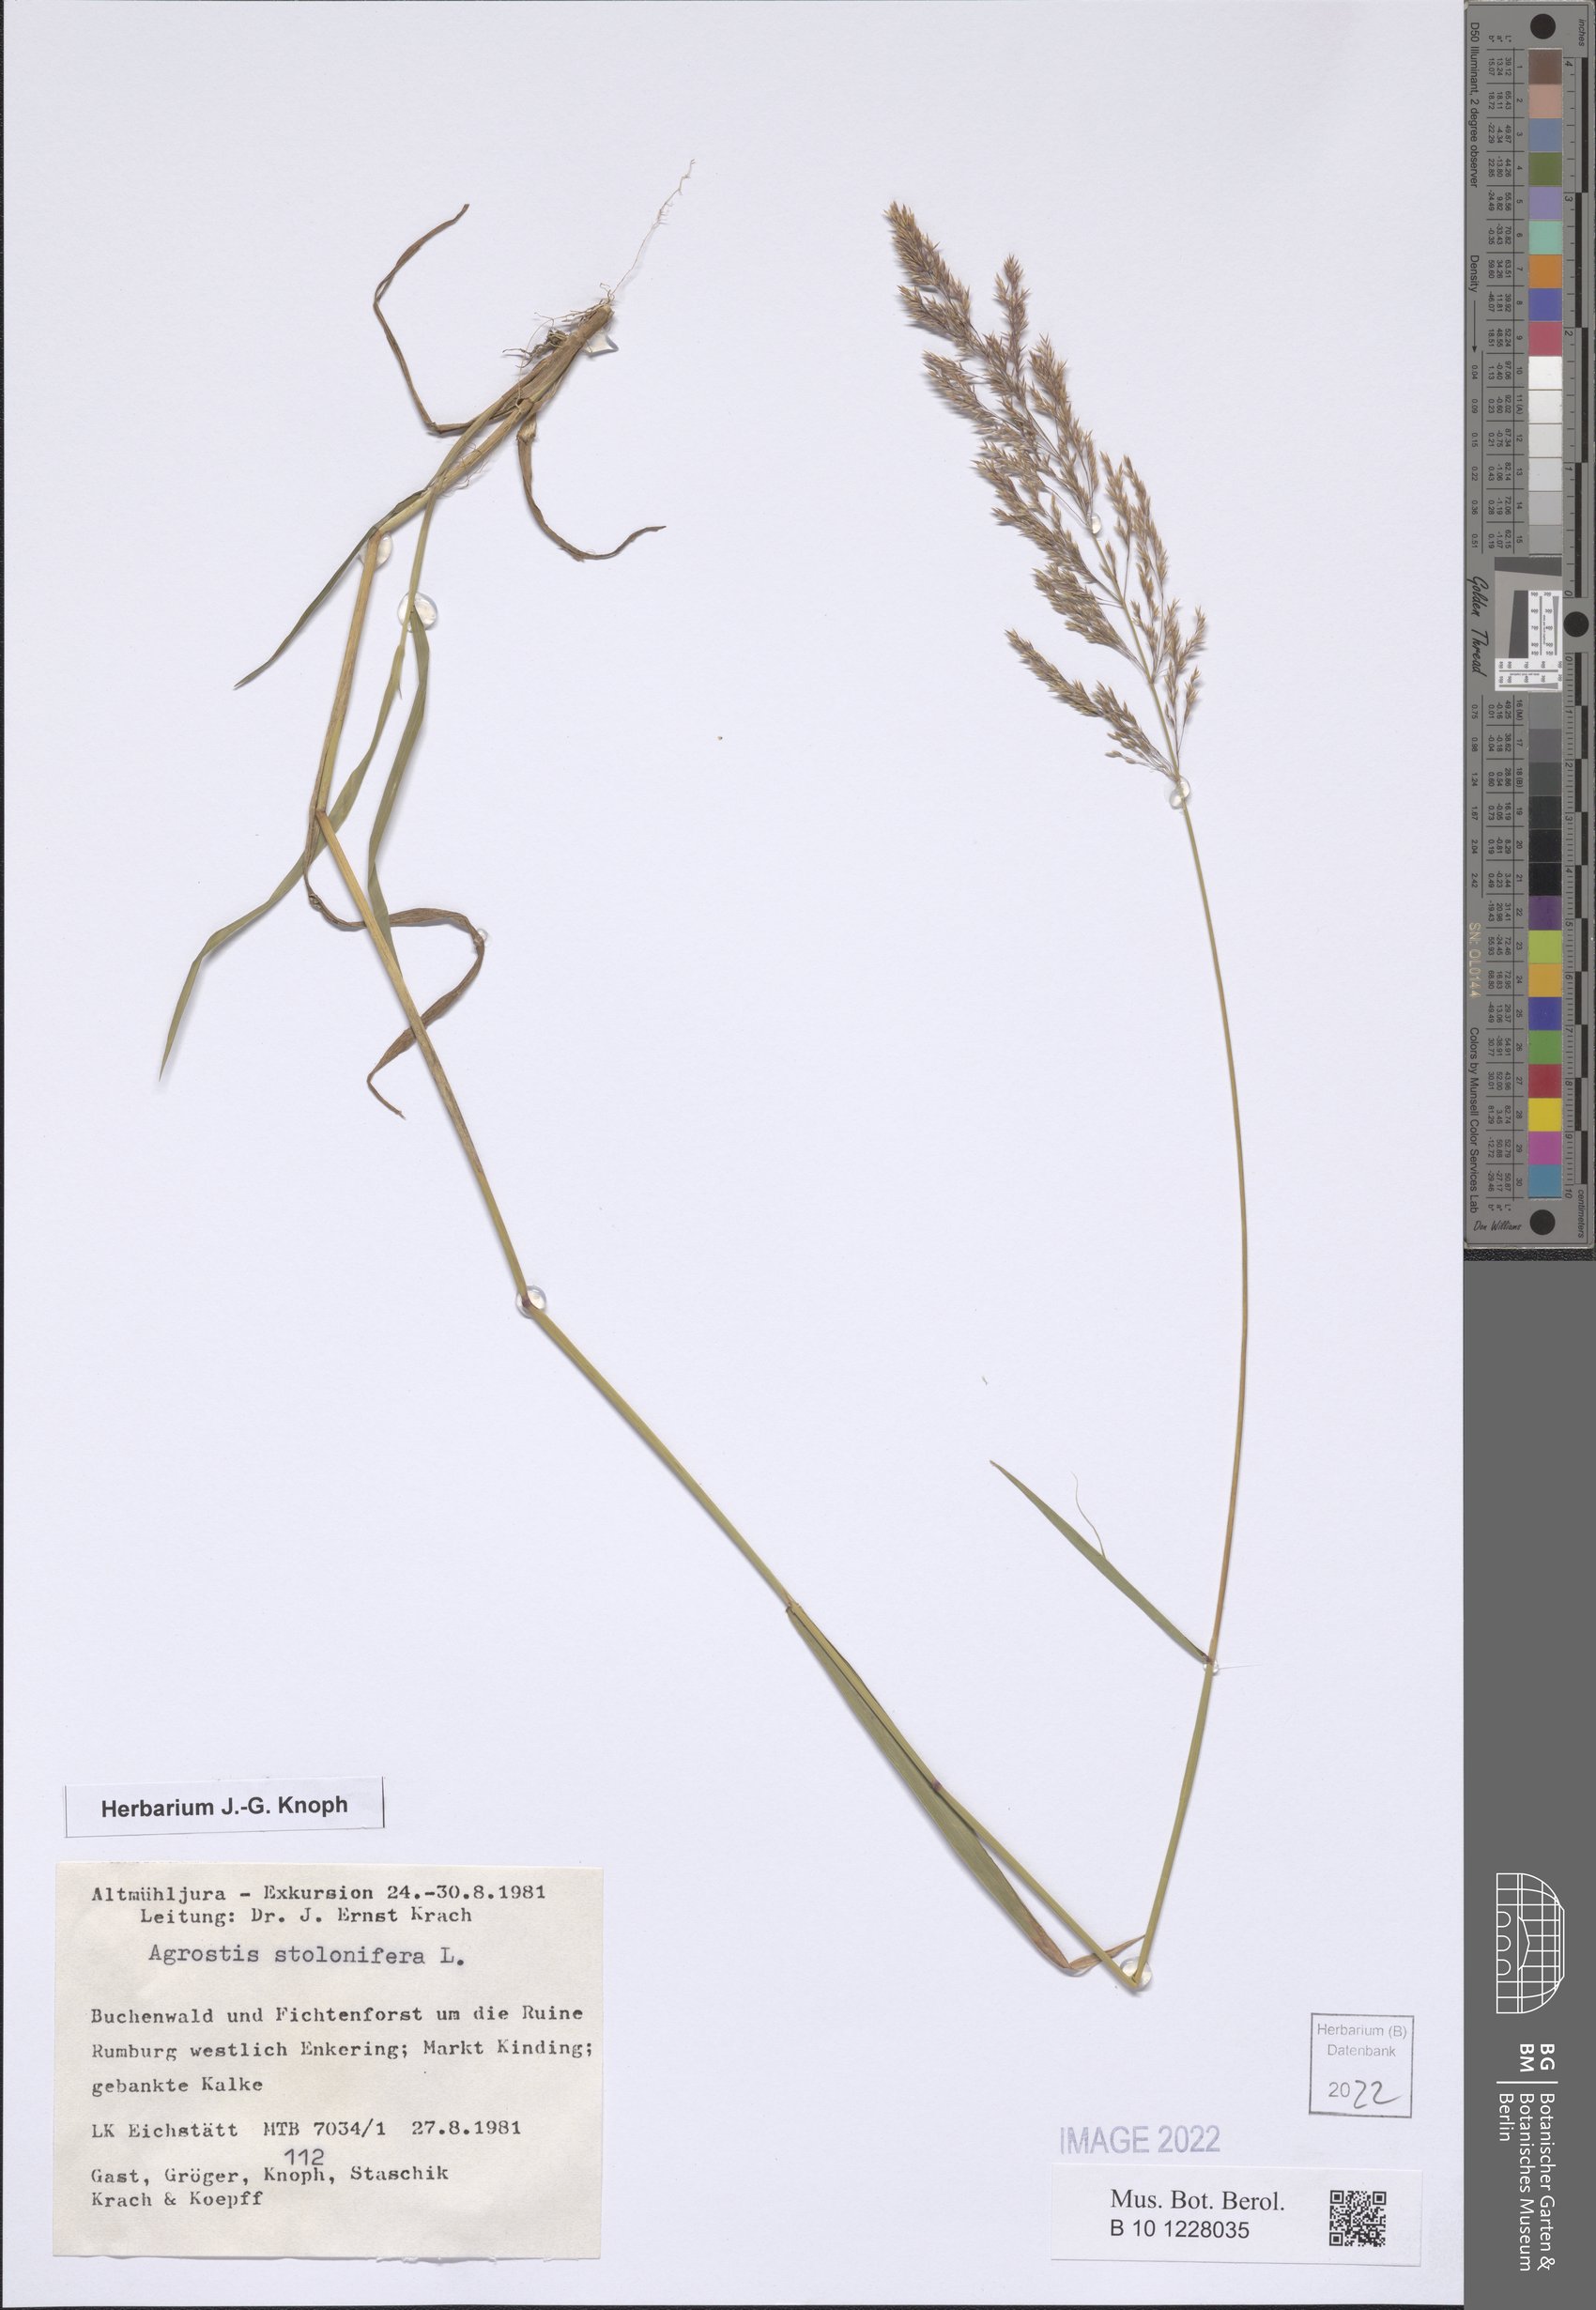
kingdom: Plantae
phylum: Tracheophyta
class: Liliopsida
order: Poales
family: Poaceae
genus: Agrostis
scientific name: Agrostis stolonifera
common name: Creeping bentgrass
